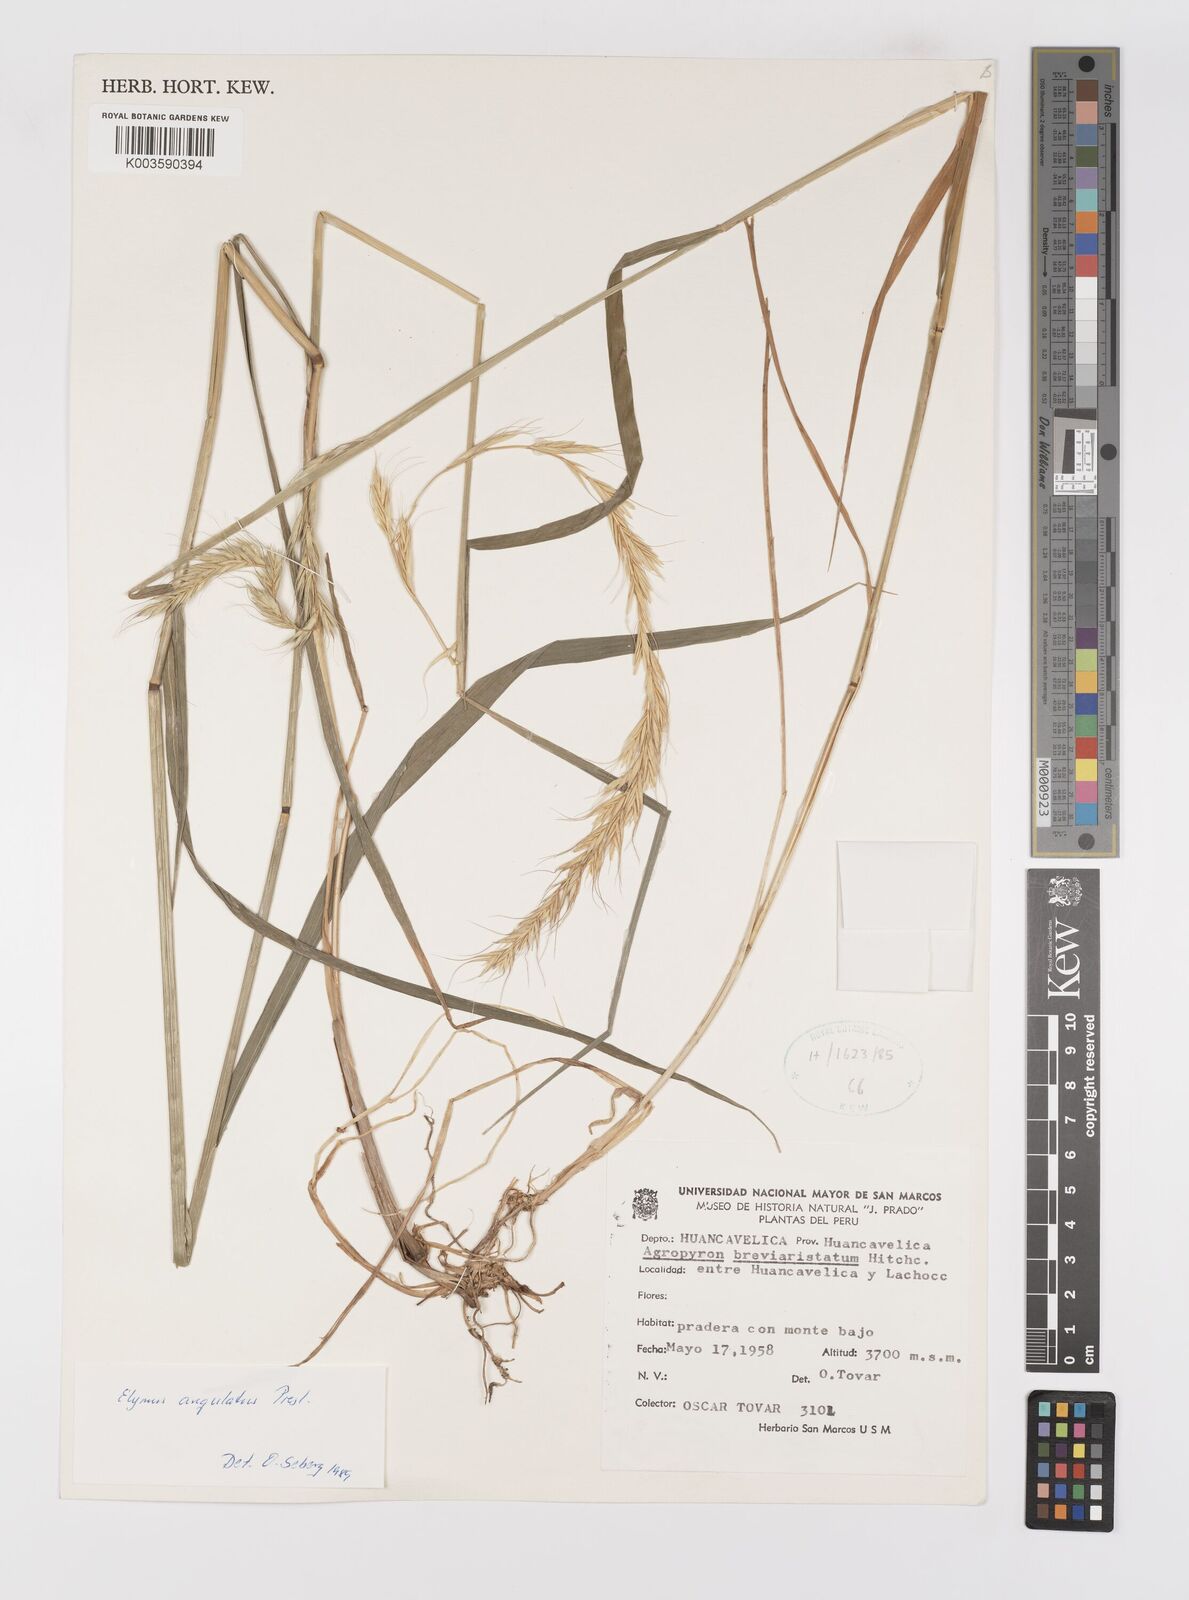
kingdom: Plantae
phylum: Tracheophyta
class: Liliopsida
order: Poales
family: Poaceae
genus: Elymus
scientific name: Elymus angulatus
